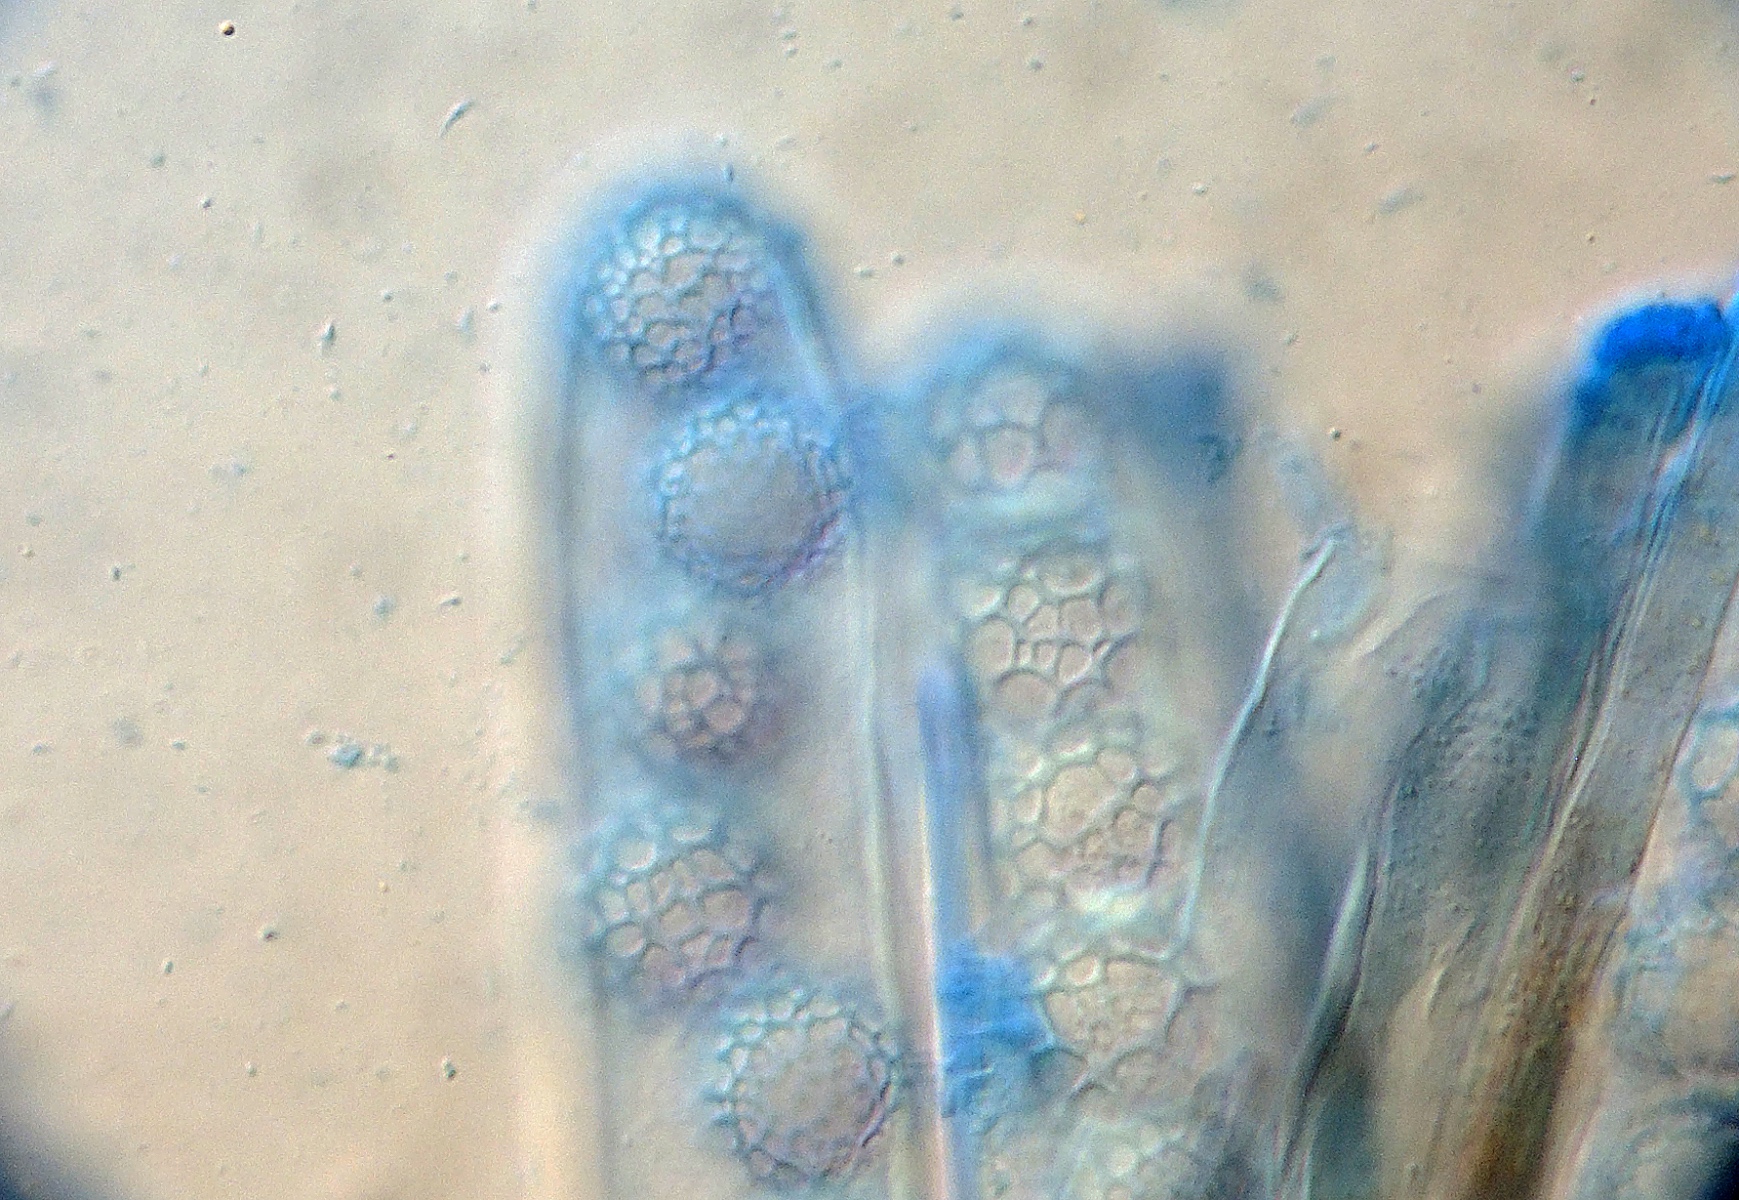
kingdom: Fungi
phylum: Ascomycota
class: Pezizomycetes
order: Pezizales
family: Pyronemataceae
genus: Lamprospora
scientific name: Lamprospora tortulae-ruralis
